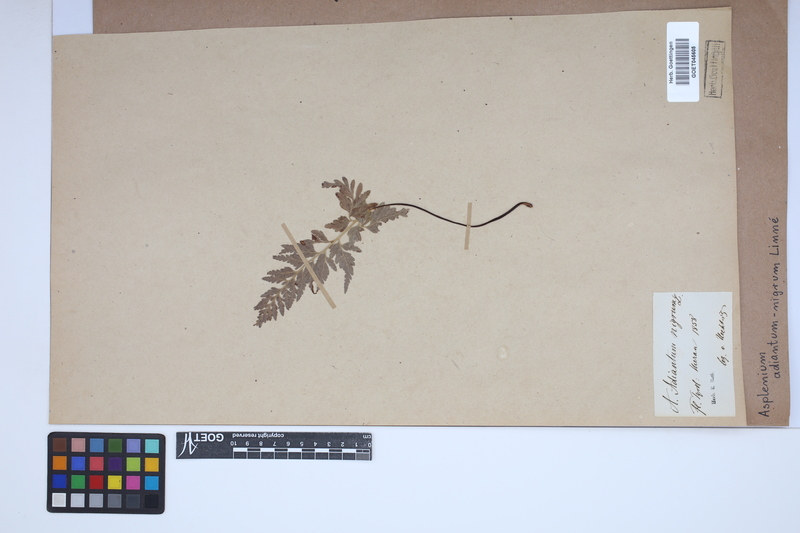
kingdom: Plantae
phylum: Tracheophyta
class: Polypodiopsida
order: Polypodiales
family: Aspleniaceae
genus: Asplenium
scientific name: Asplenium adiantum-nigrum
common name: Black spleenwort
